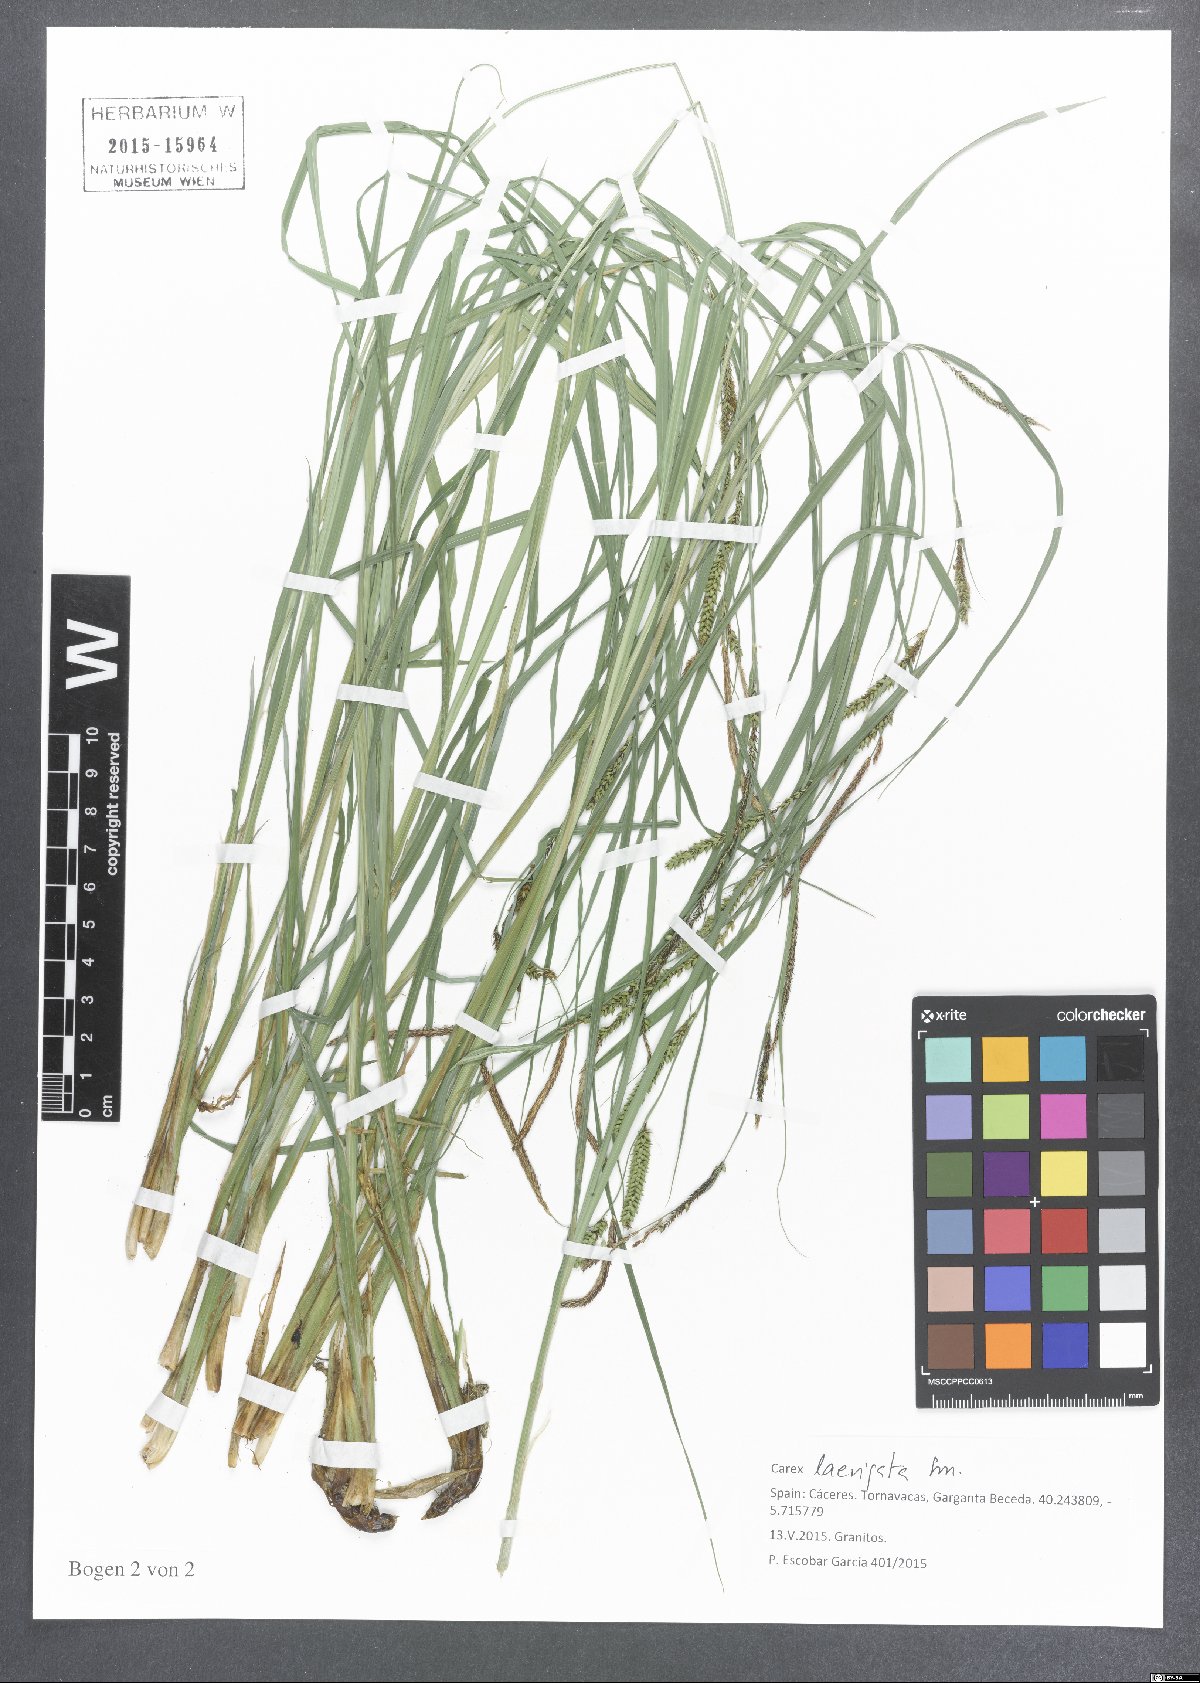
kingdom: Plantae
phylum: Tracheophyta
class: Liliopsida
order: Poales
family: Cyperaceae
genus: Carex
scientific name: Carex acuta
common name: Slender tufted-sedge
